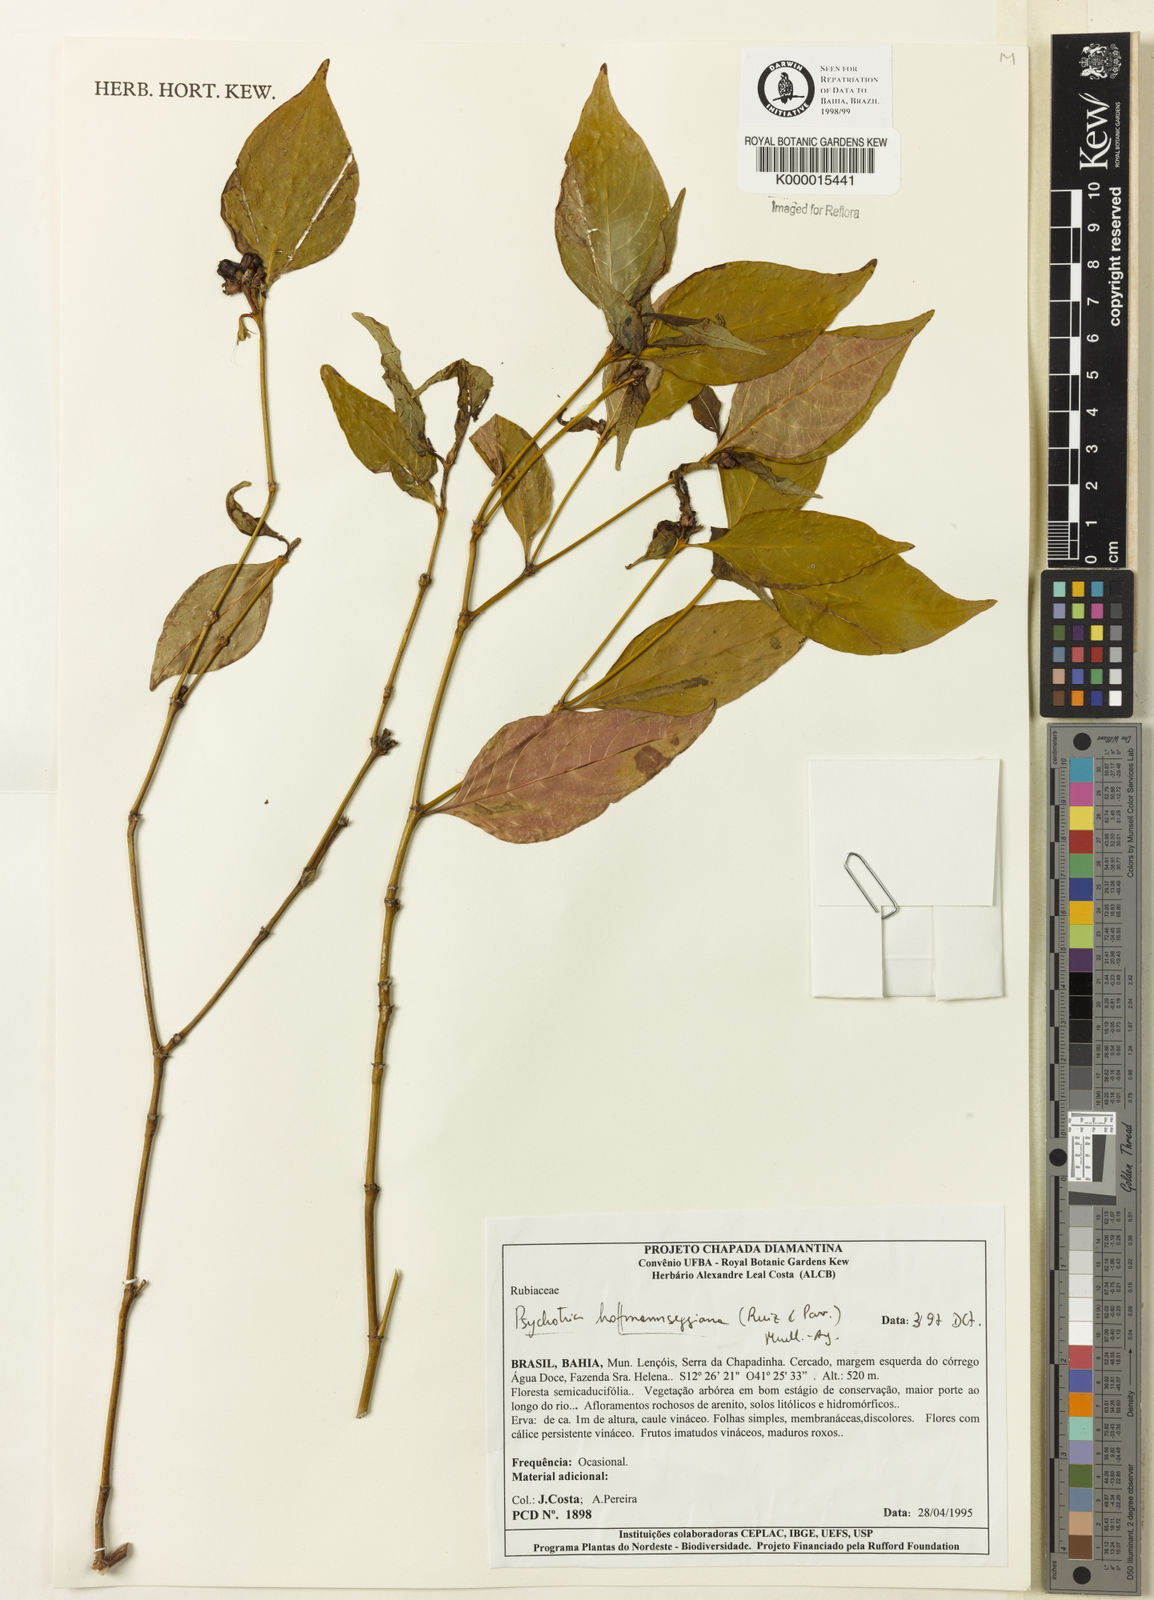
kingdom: Plantae
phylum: Tracheophyta
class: Magnoliopsida
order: Gentianales
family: Rubiaceae
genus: Psychotria
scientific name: Psychotria
